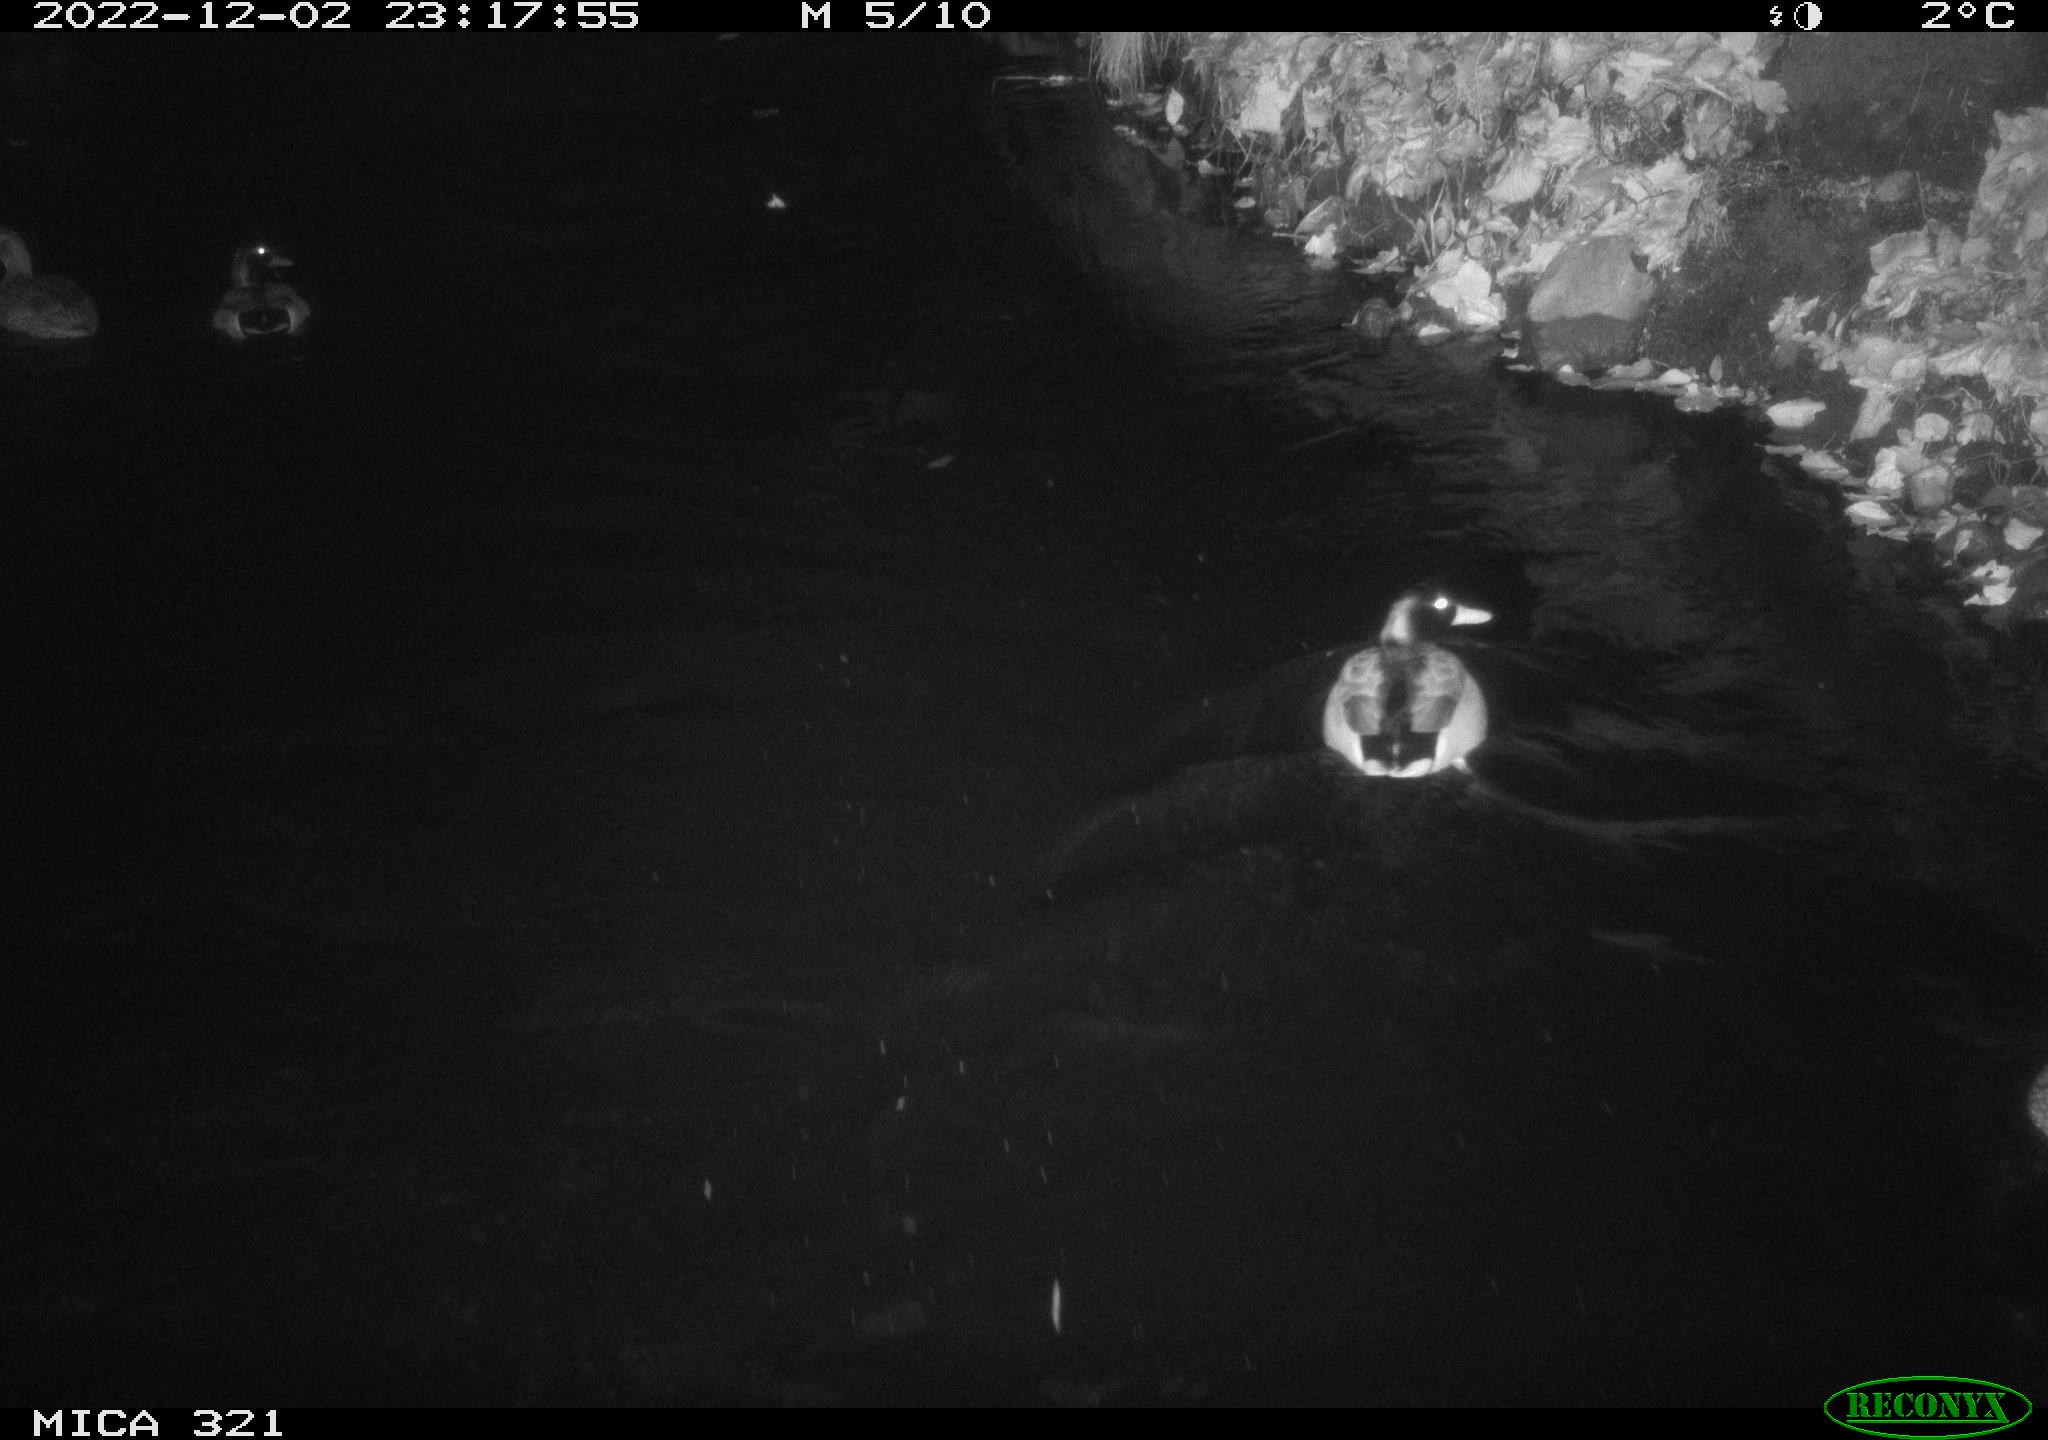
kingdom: Animalia
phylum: Chordata
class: Aves
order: Anseriformes
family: Anatidae
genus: Anas
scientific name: Anas
